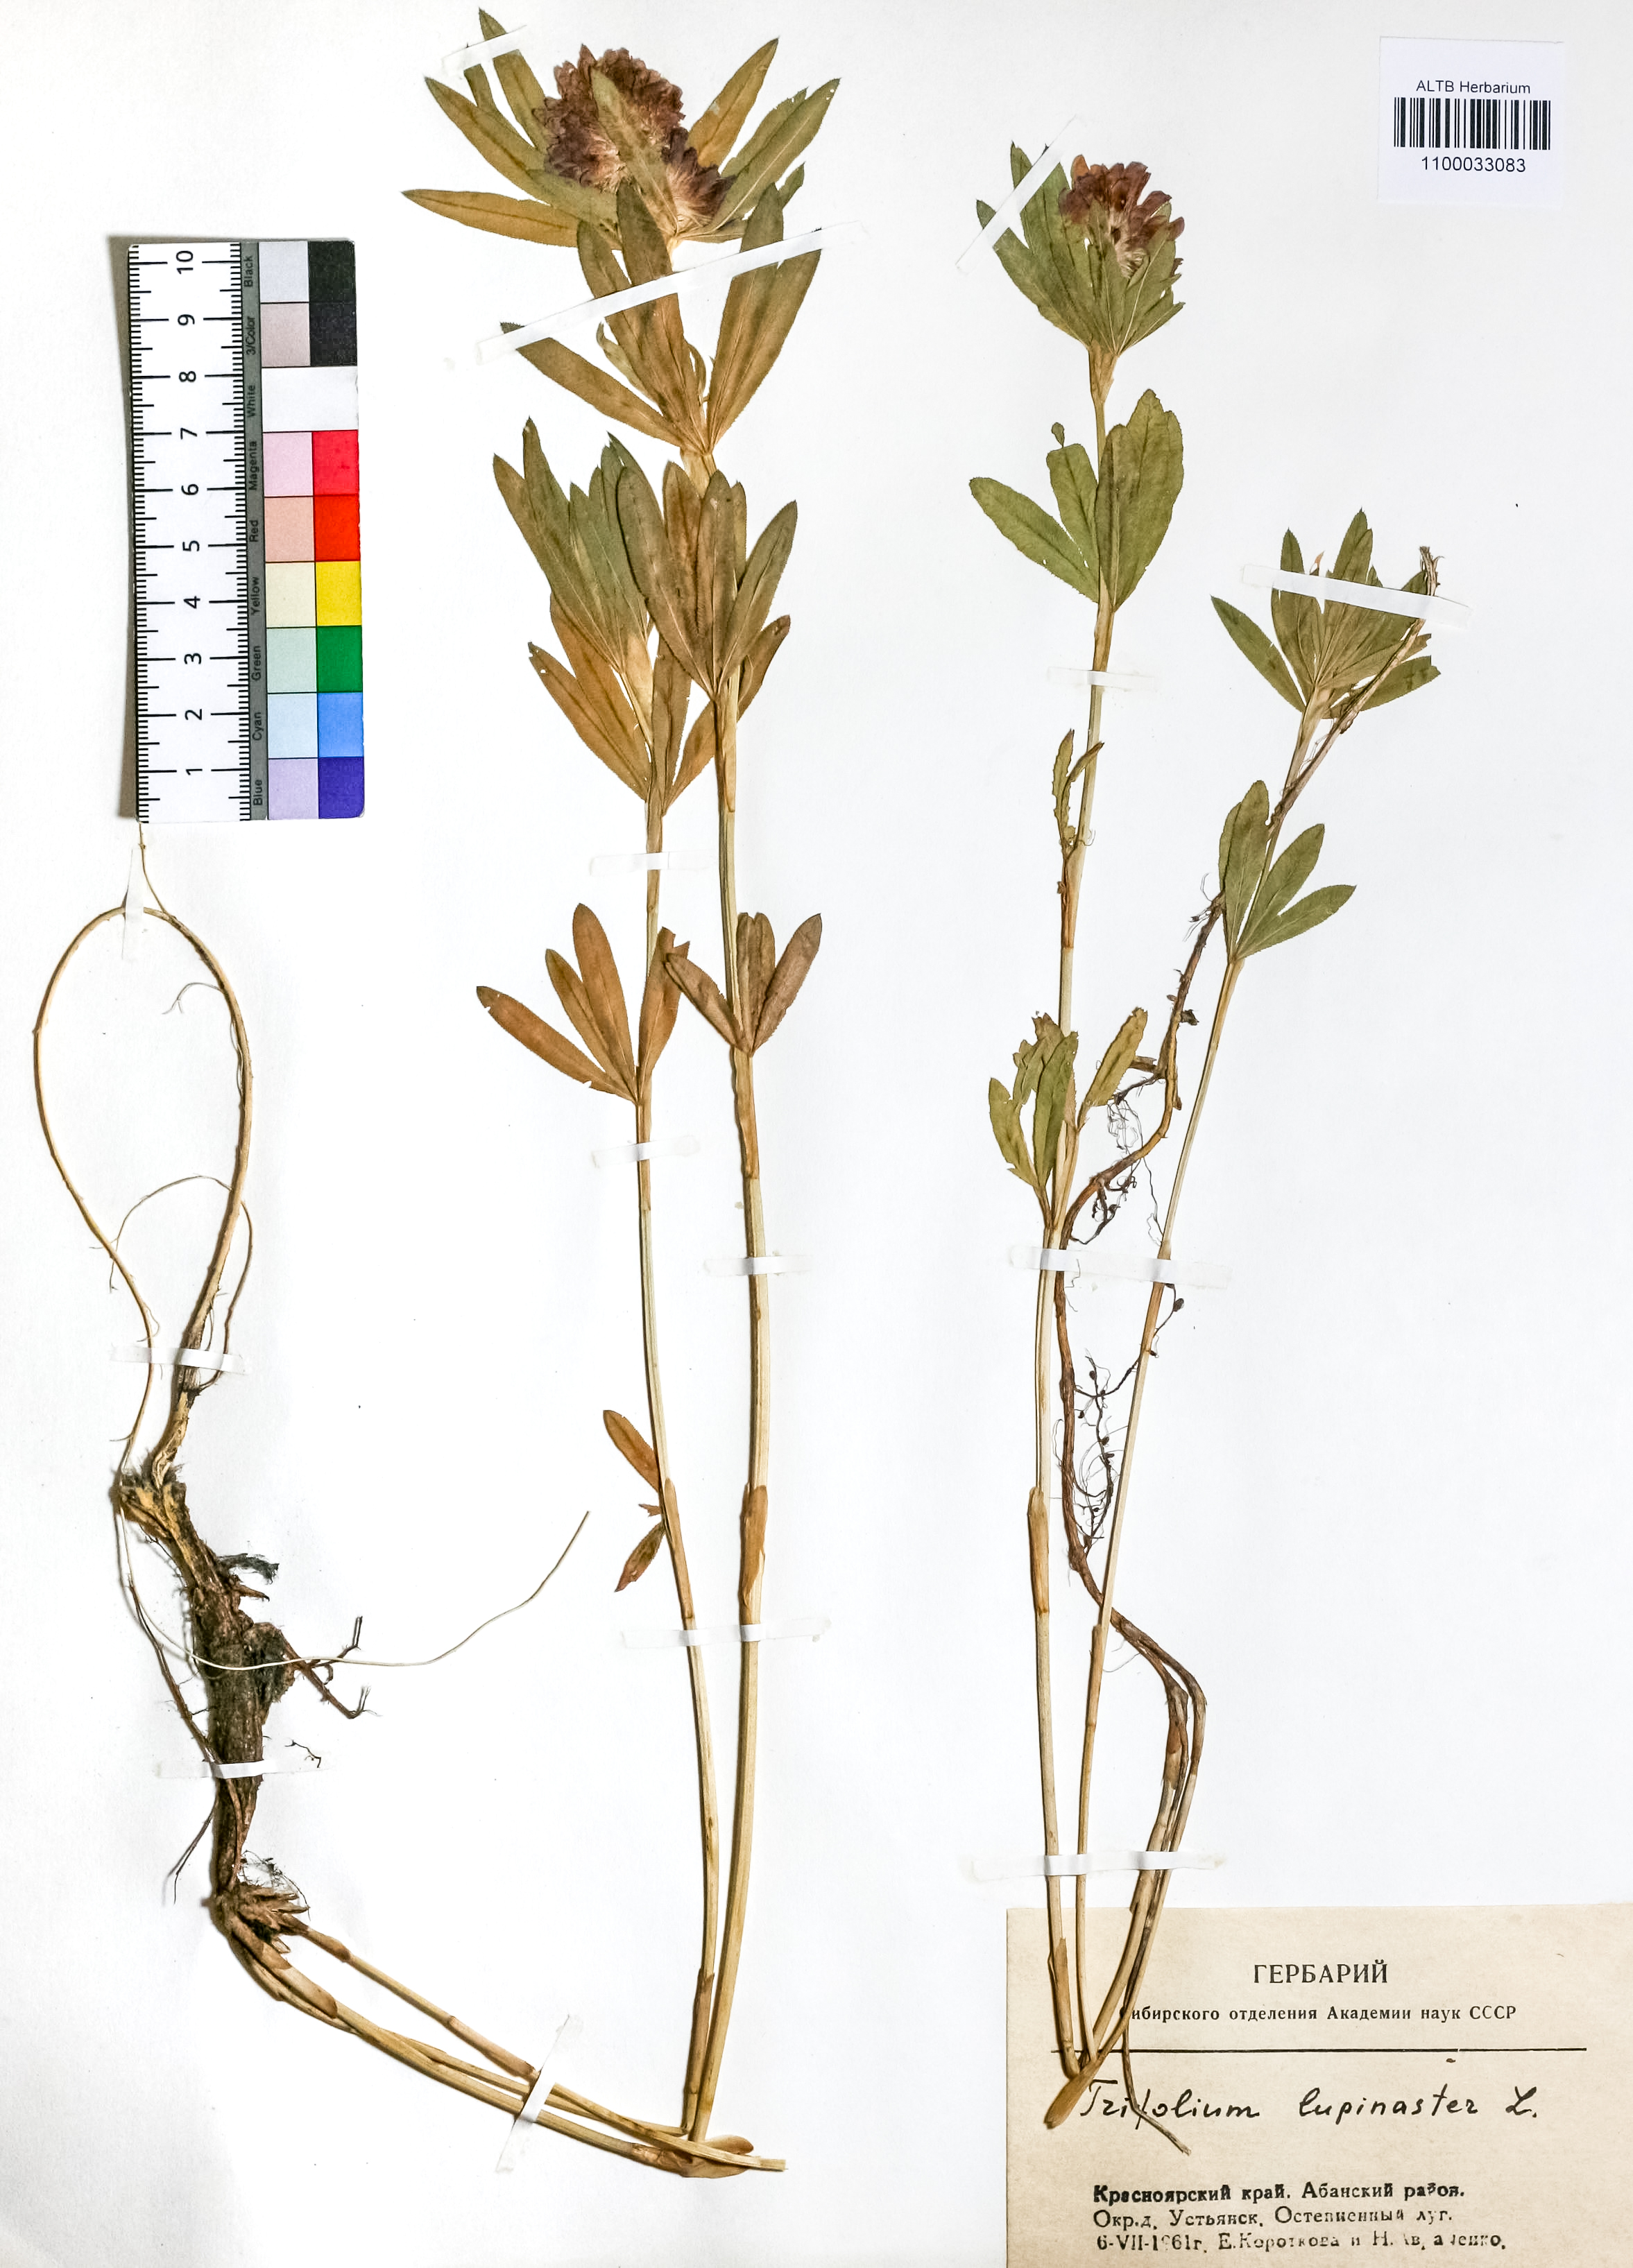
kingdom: Plantae
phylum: Tracheophyta
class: Magnoliopsida
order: Fabales
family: Fabaceae
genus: Trifolium
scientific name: Trifolium lupinaster
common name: Lupine clover
